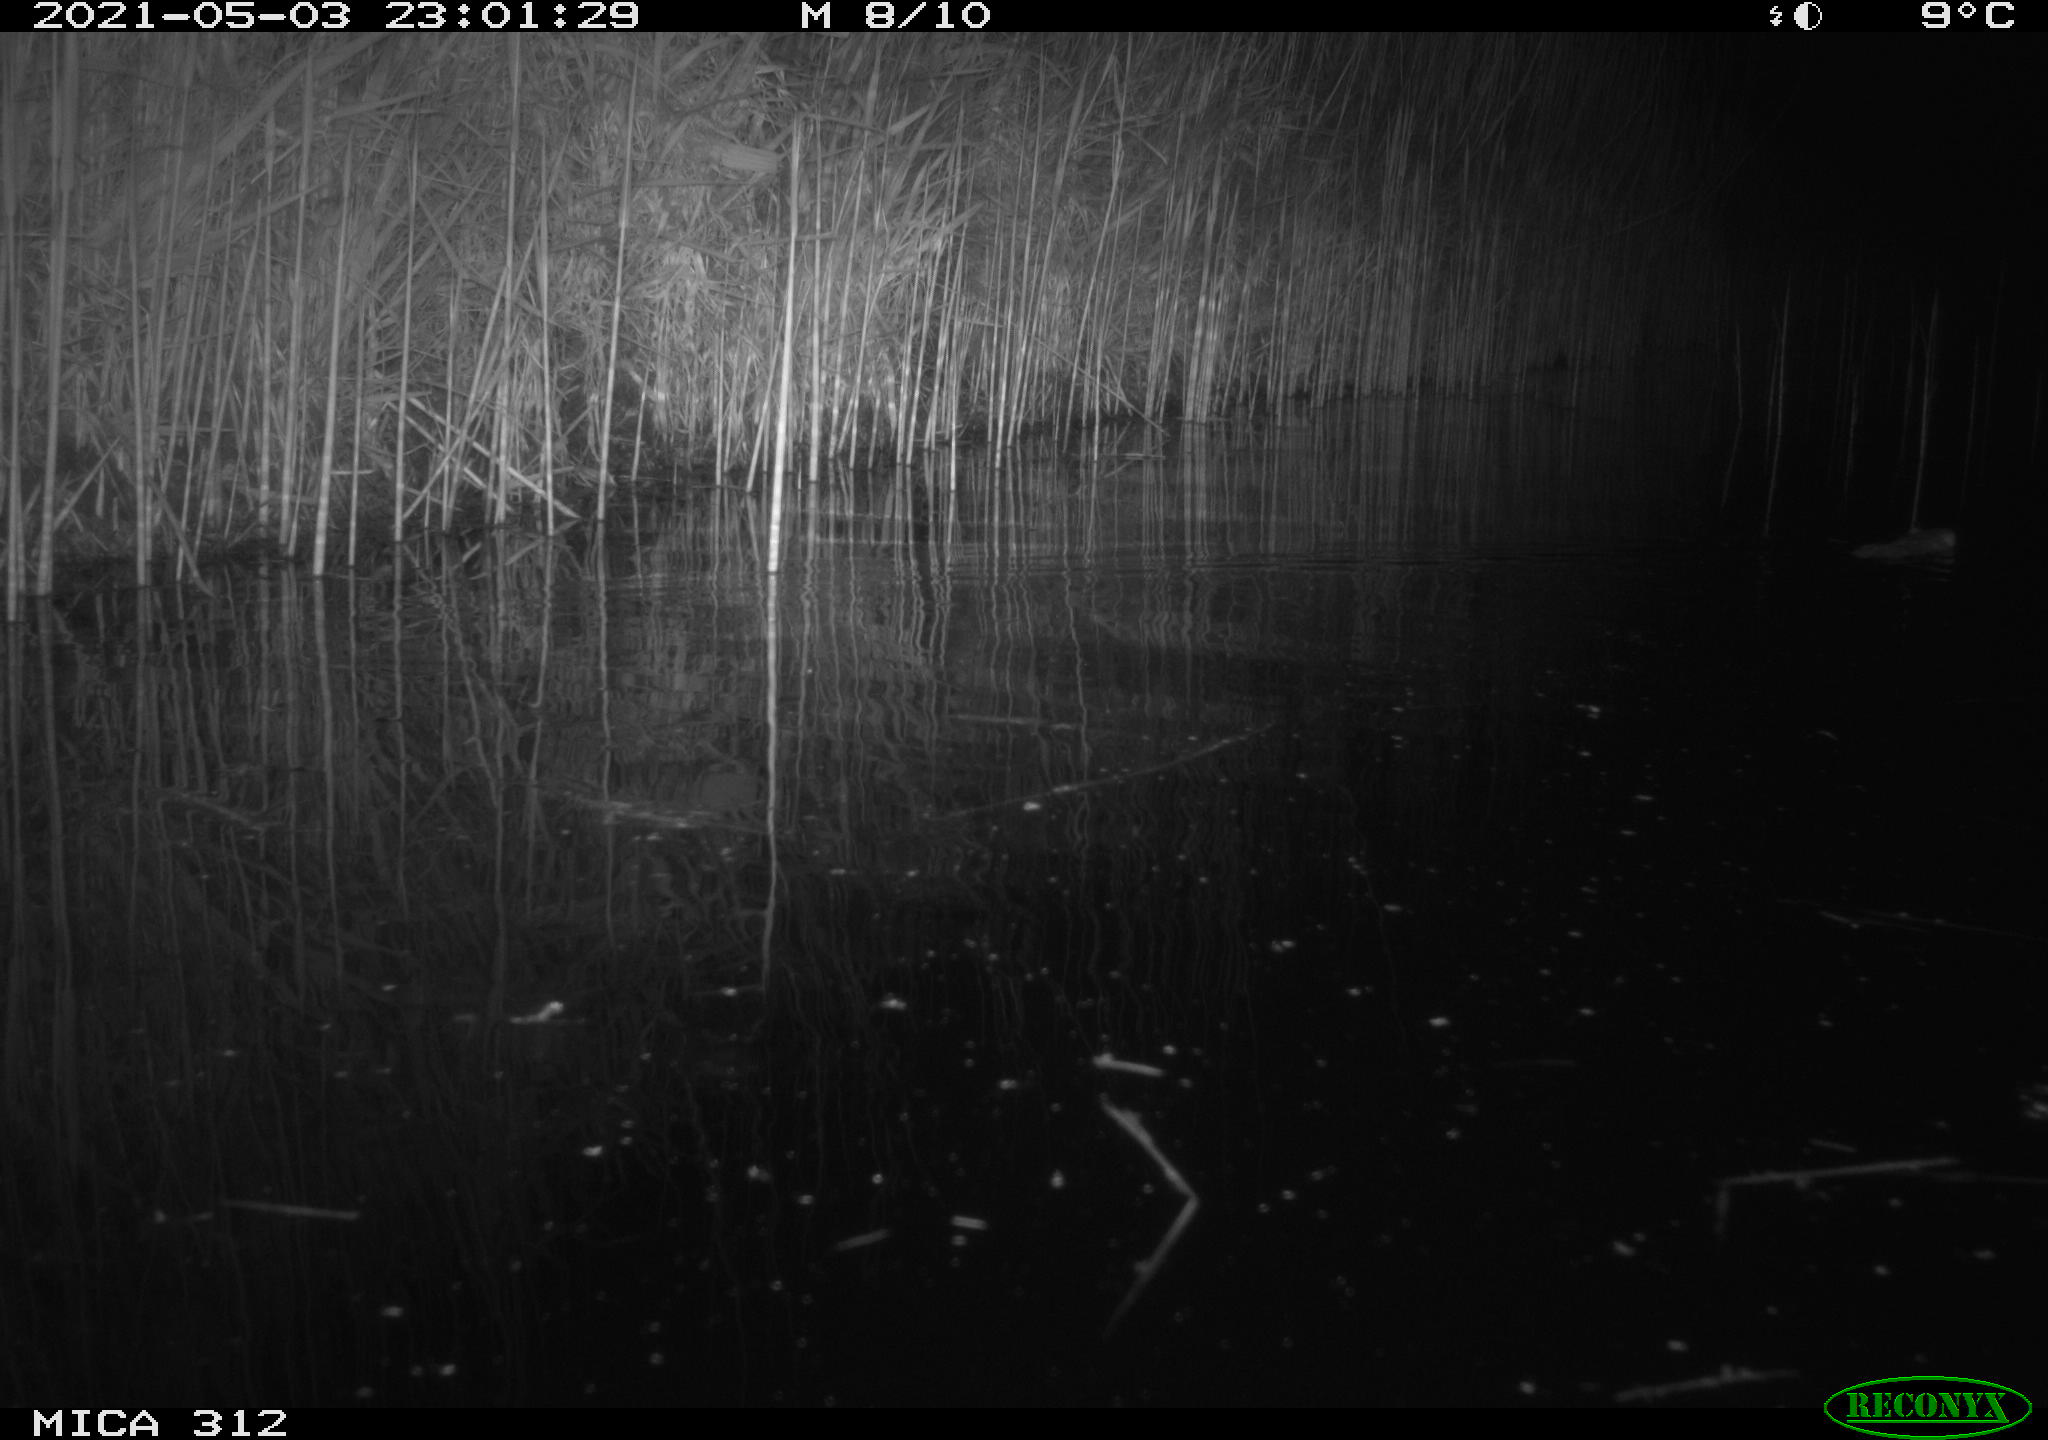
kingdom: Animalia
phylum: Chordata
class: Mammalia
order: Rodentia
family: Muridae
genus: Rattus
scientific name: Rattus norvegicus
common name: Brown rat
